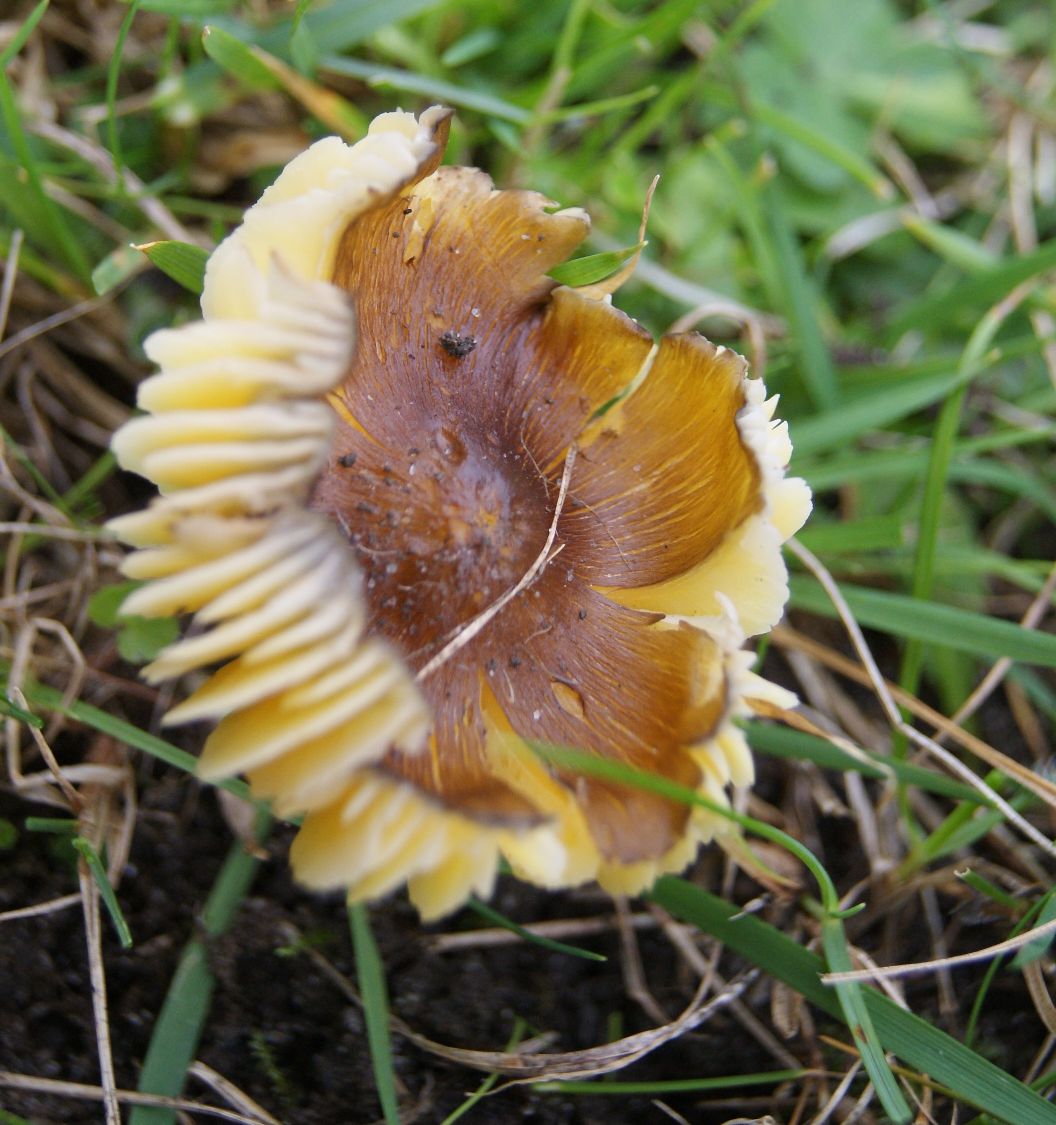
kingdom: Fungi
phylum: Basidiomycota
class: Agaricomycetes
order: Agaricales
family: Hygrophoraceae
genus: Hygrocybe
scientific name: Hygrocybe spadicea
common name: daddelbrun vokshat
